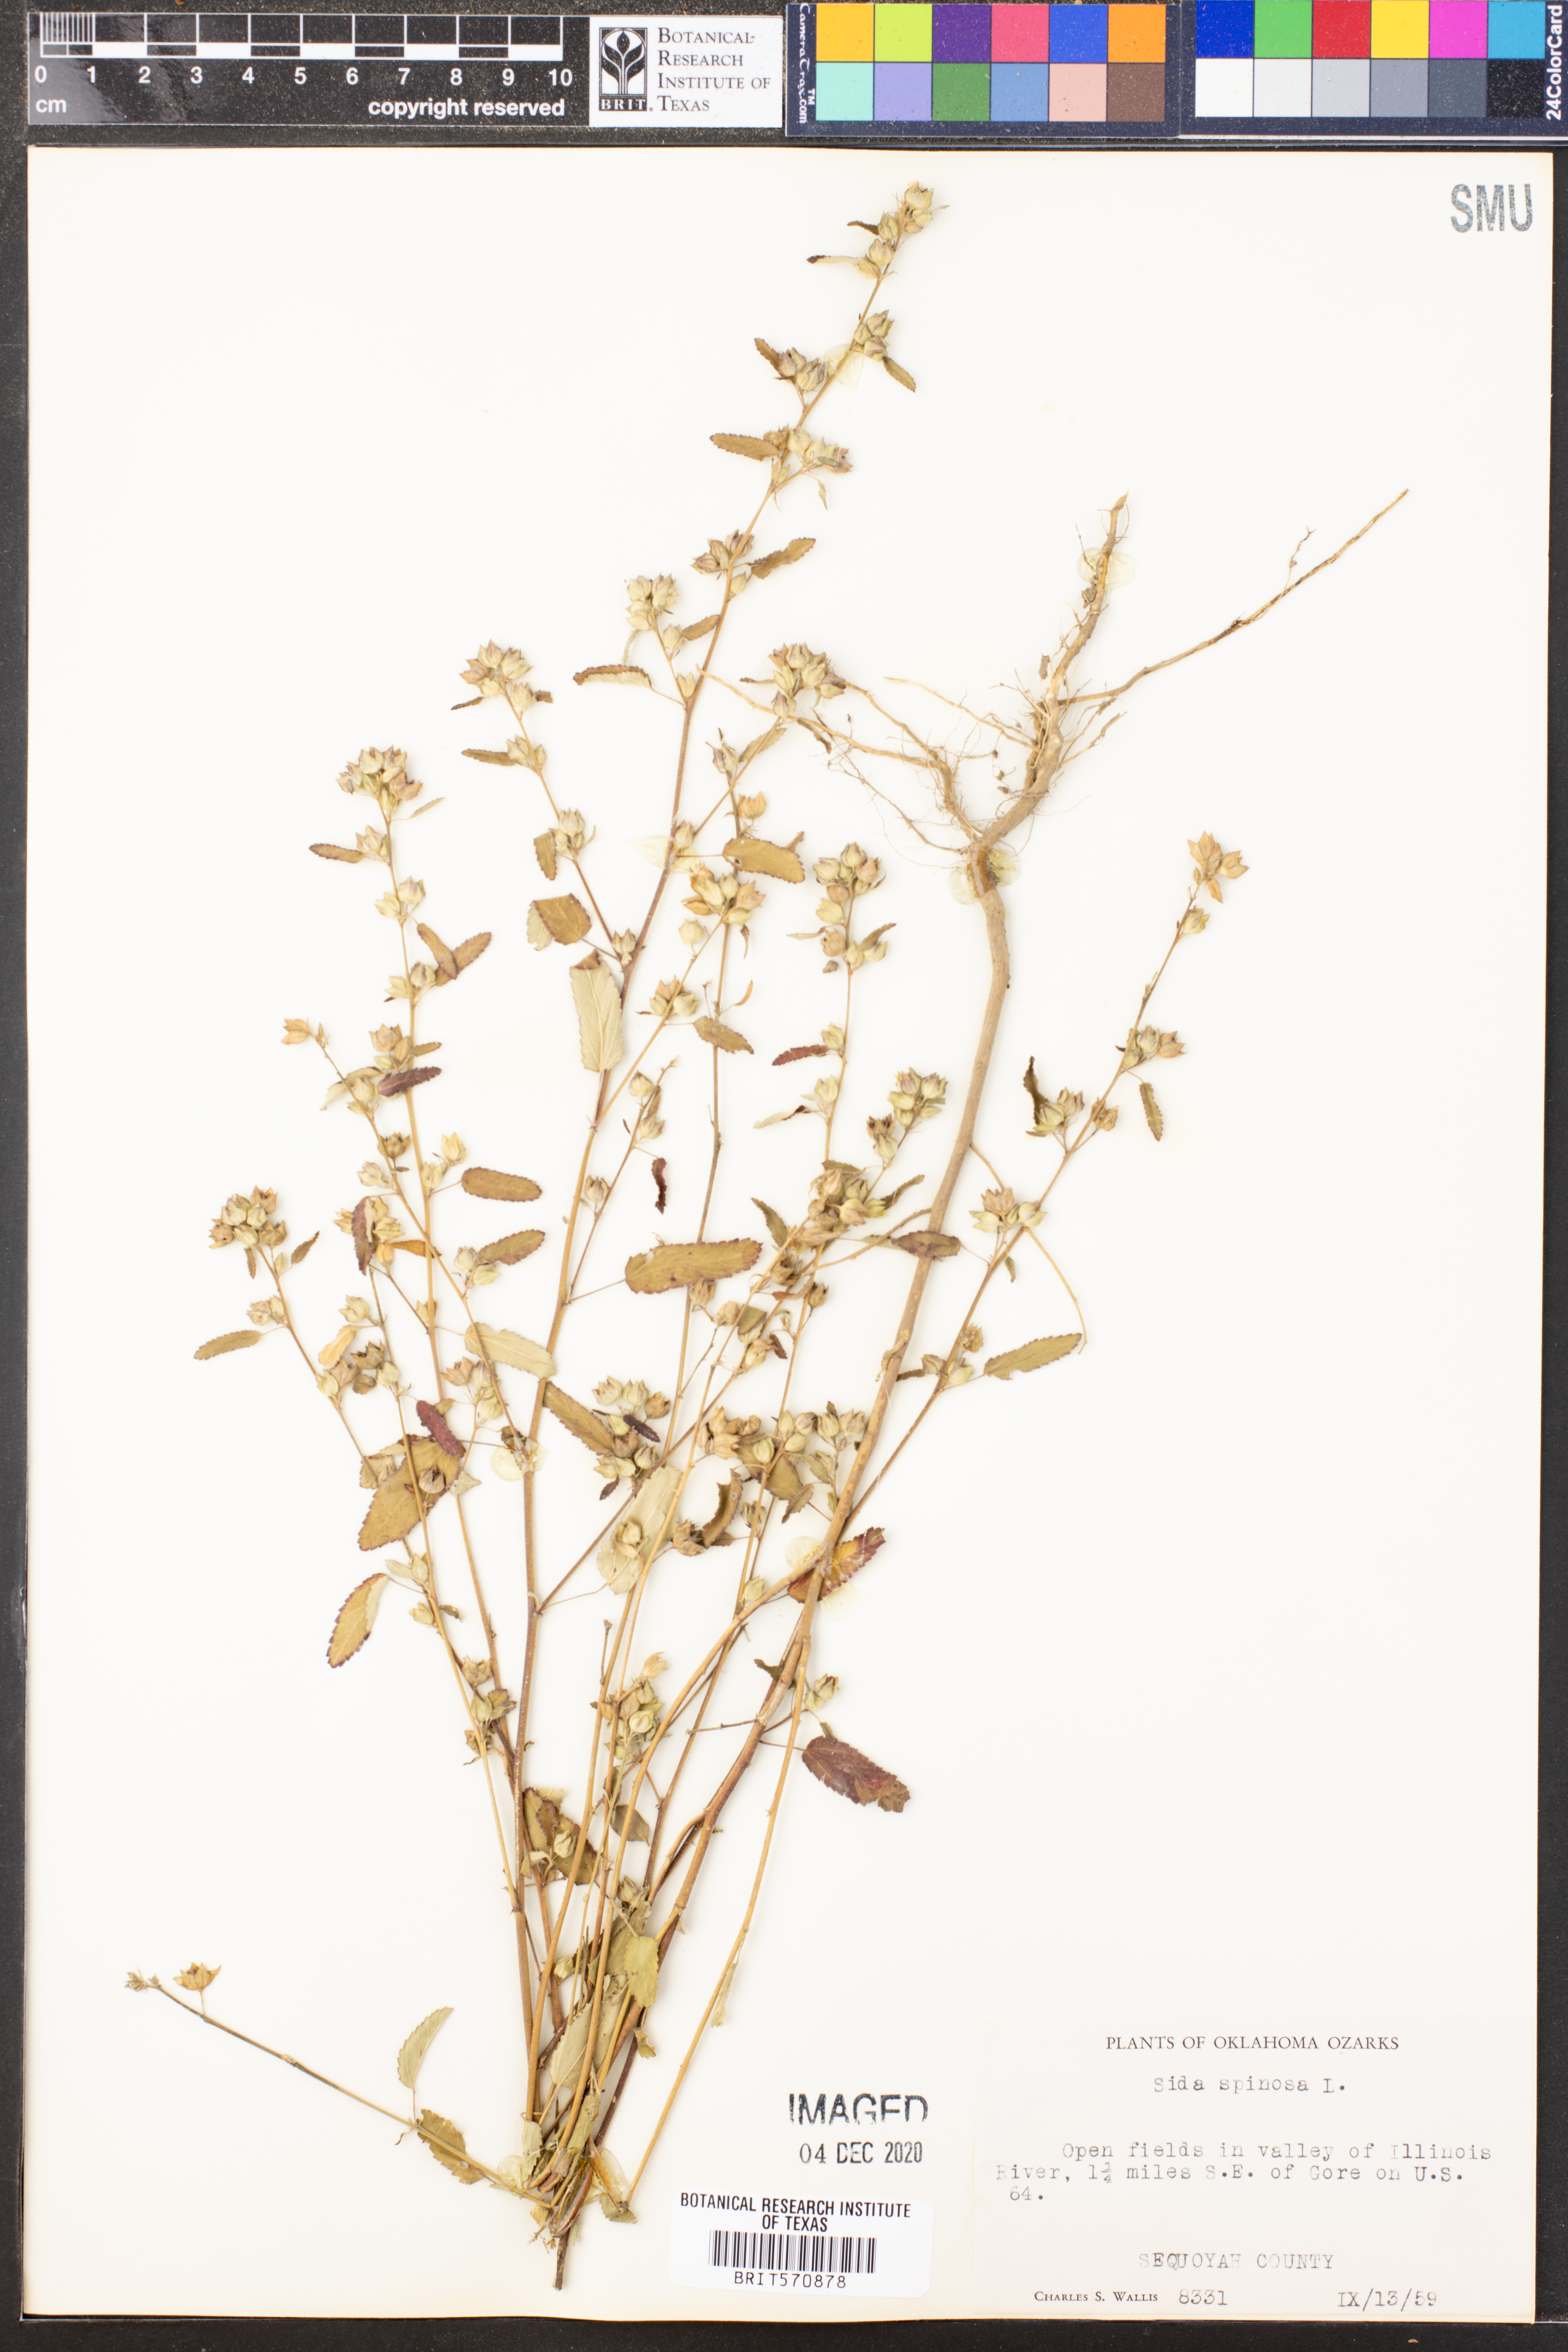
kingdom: Plantae
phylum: Tracheophyta
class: Magnoliopsida
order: Malvales
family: Malvaceae
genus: Sida
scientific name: Sida spinosa
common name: Prickly fanpetals
